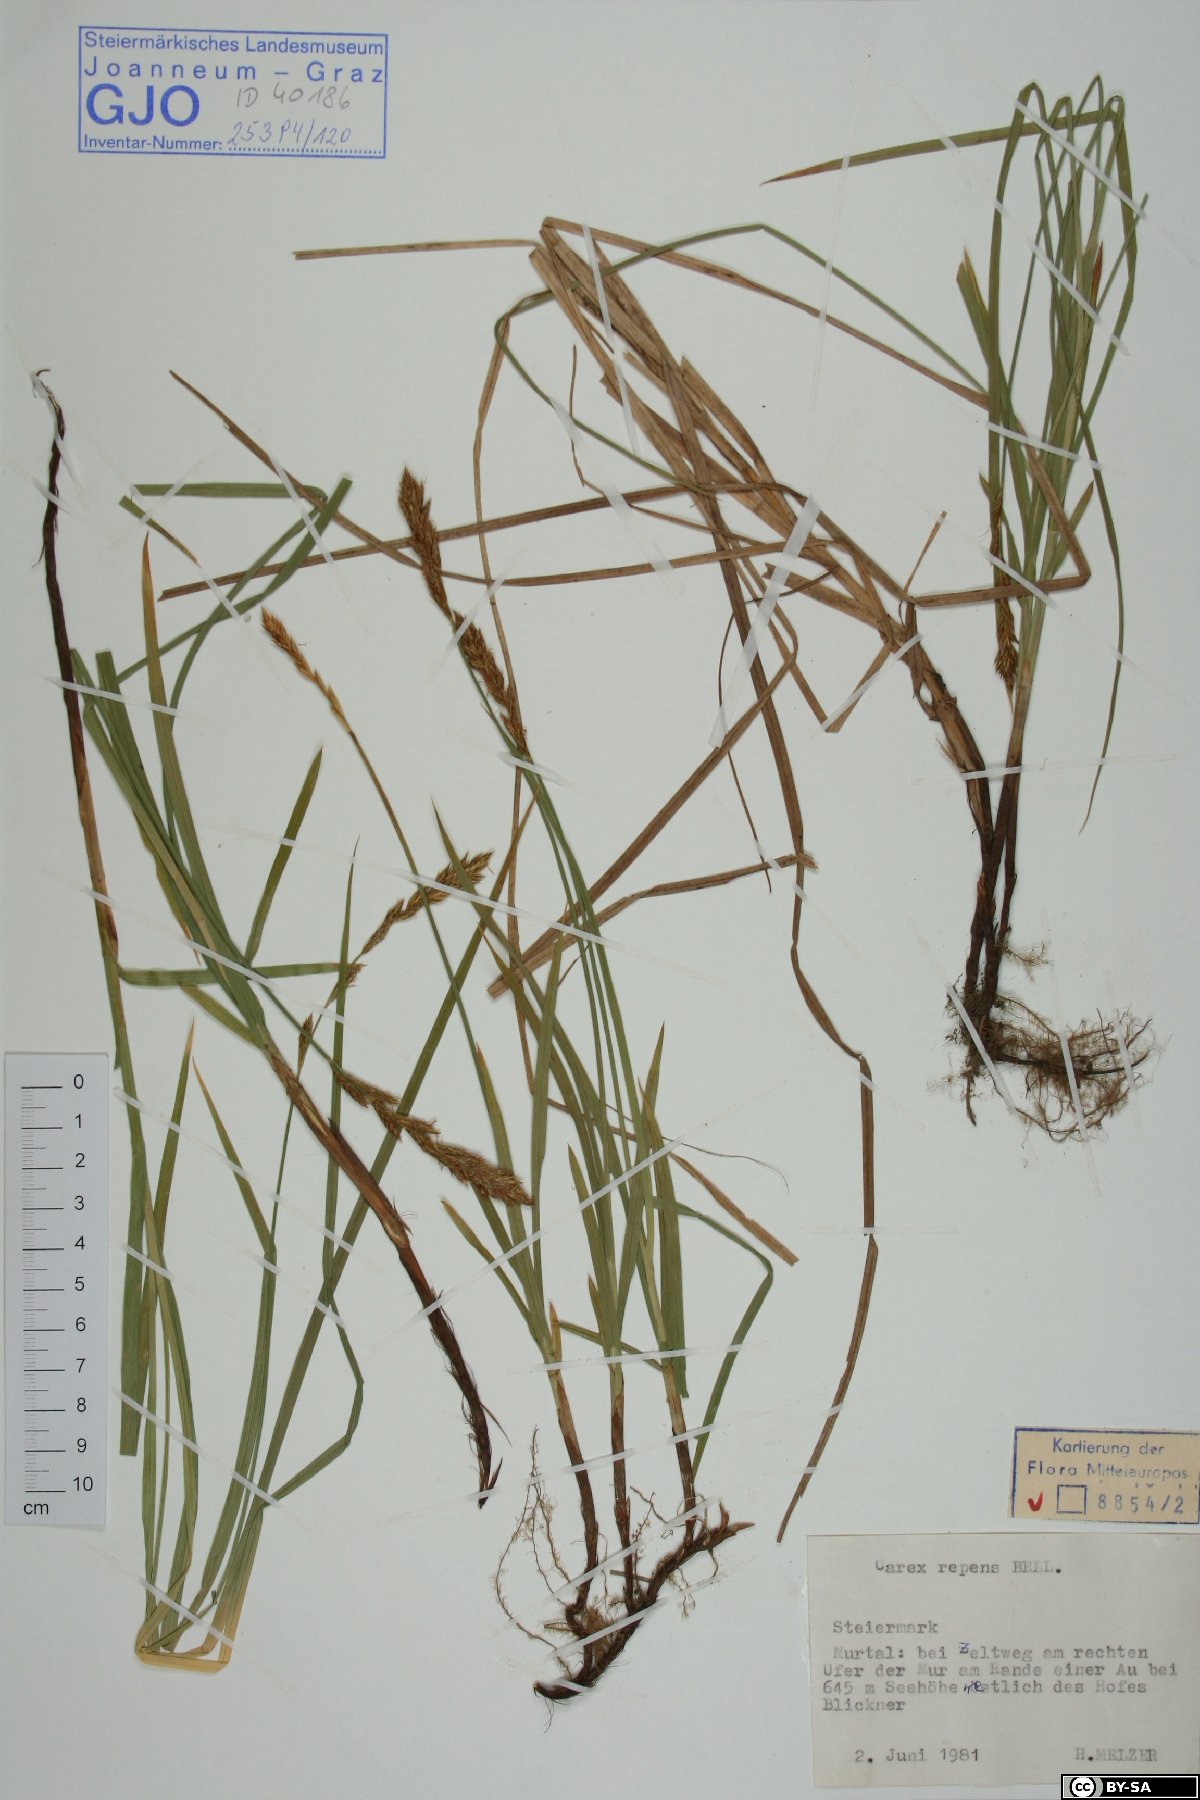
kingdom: Plantae
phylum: Tracheophyta
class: Liliopsida
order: Poales
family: Cyperaceae
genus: Carex
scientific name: Carex repens
